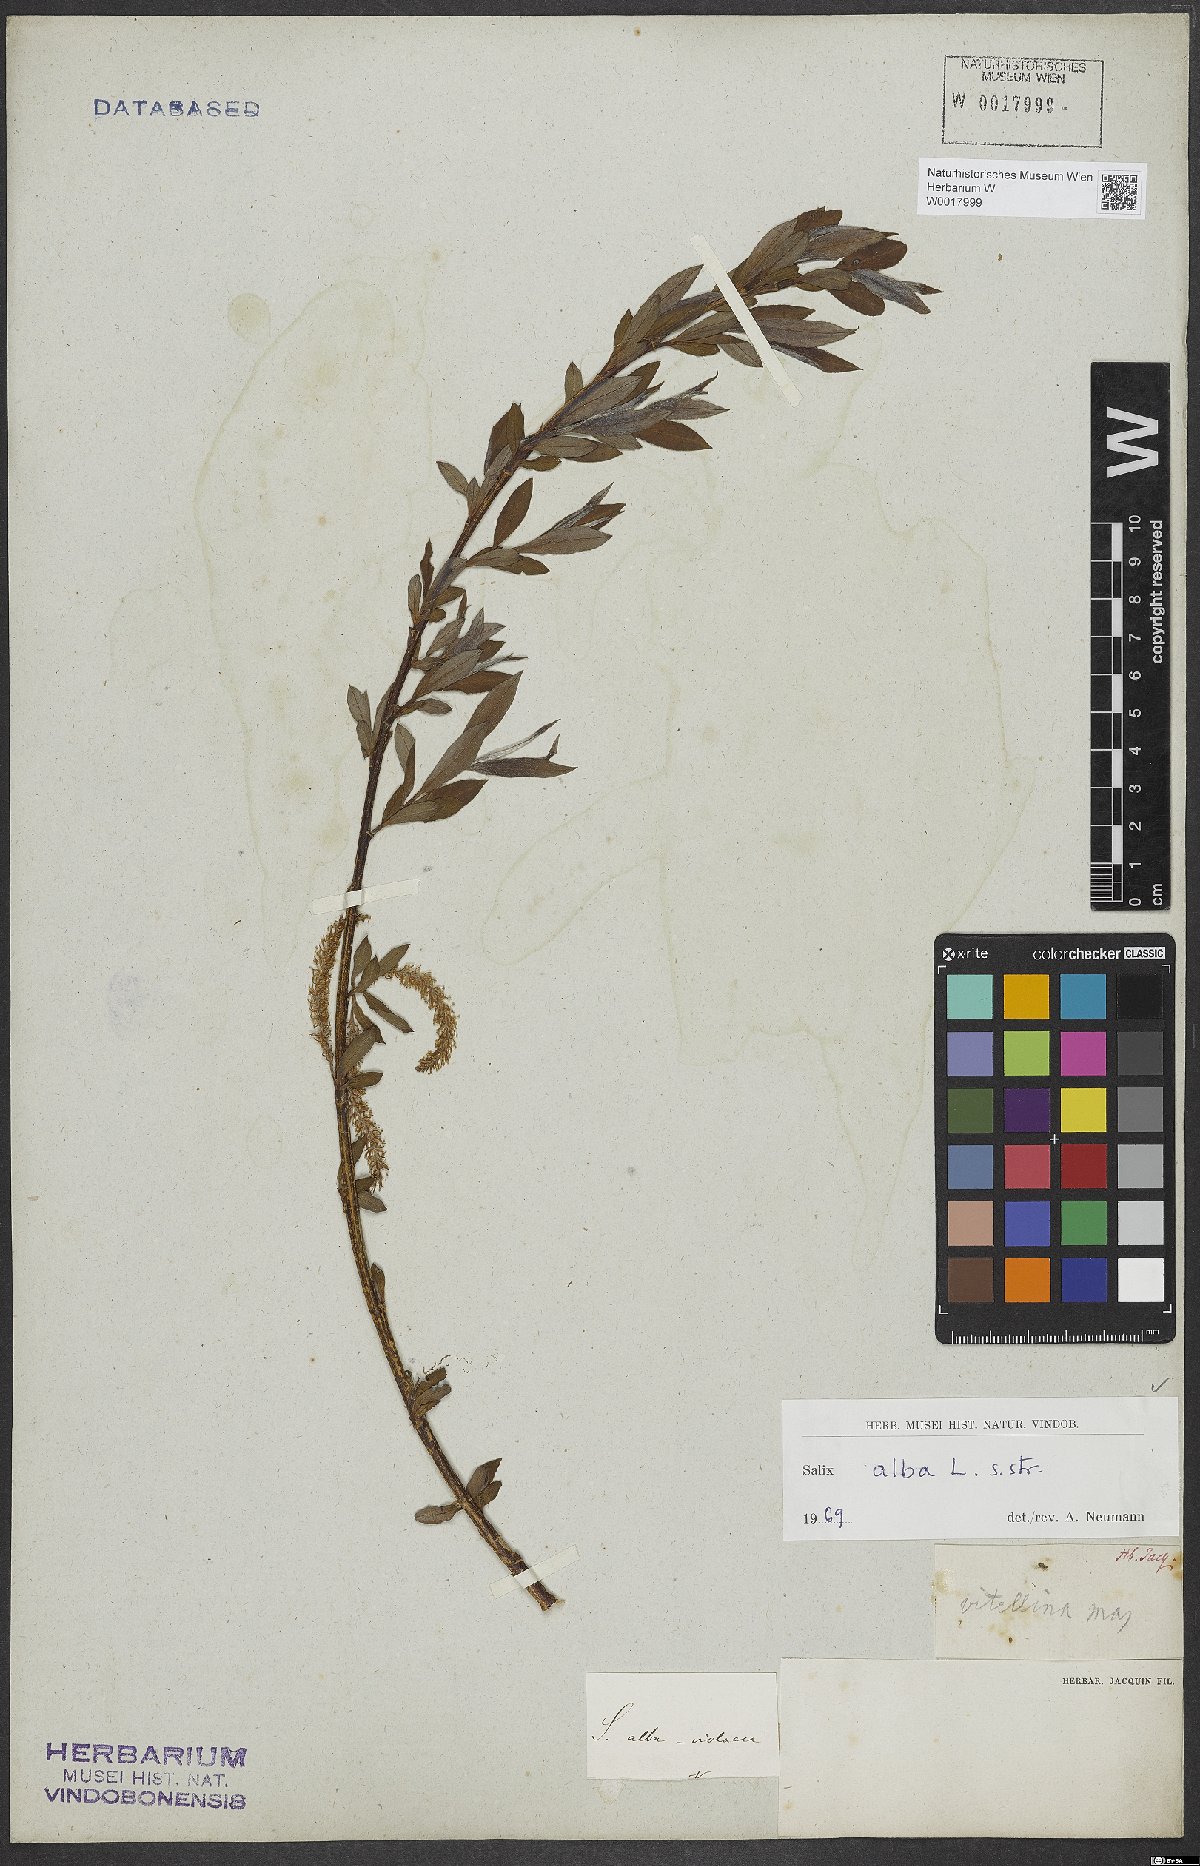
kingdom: Plantae
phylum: Tracheophyta
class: Magnoliopsida
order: Malpighiales
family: Salicaceae
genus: Salix
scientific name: Salix alba
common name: White willow
